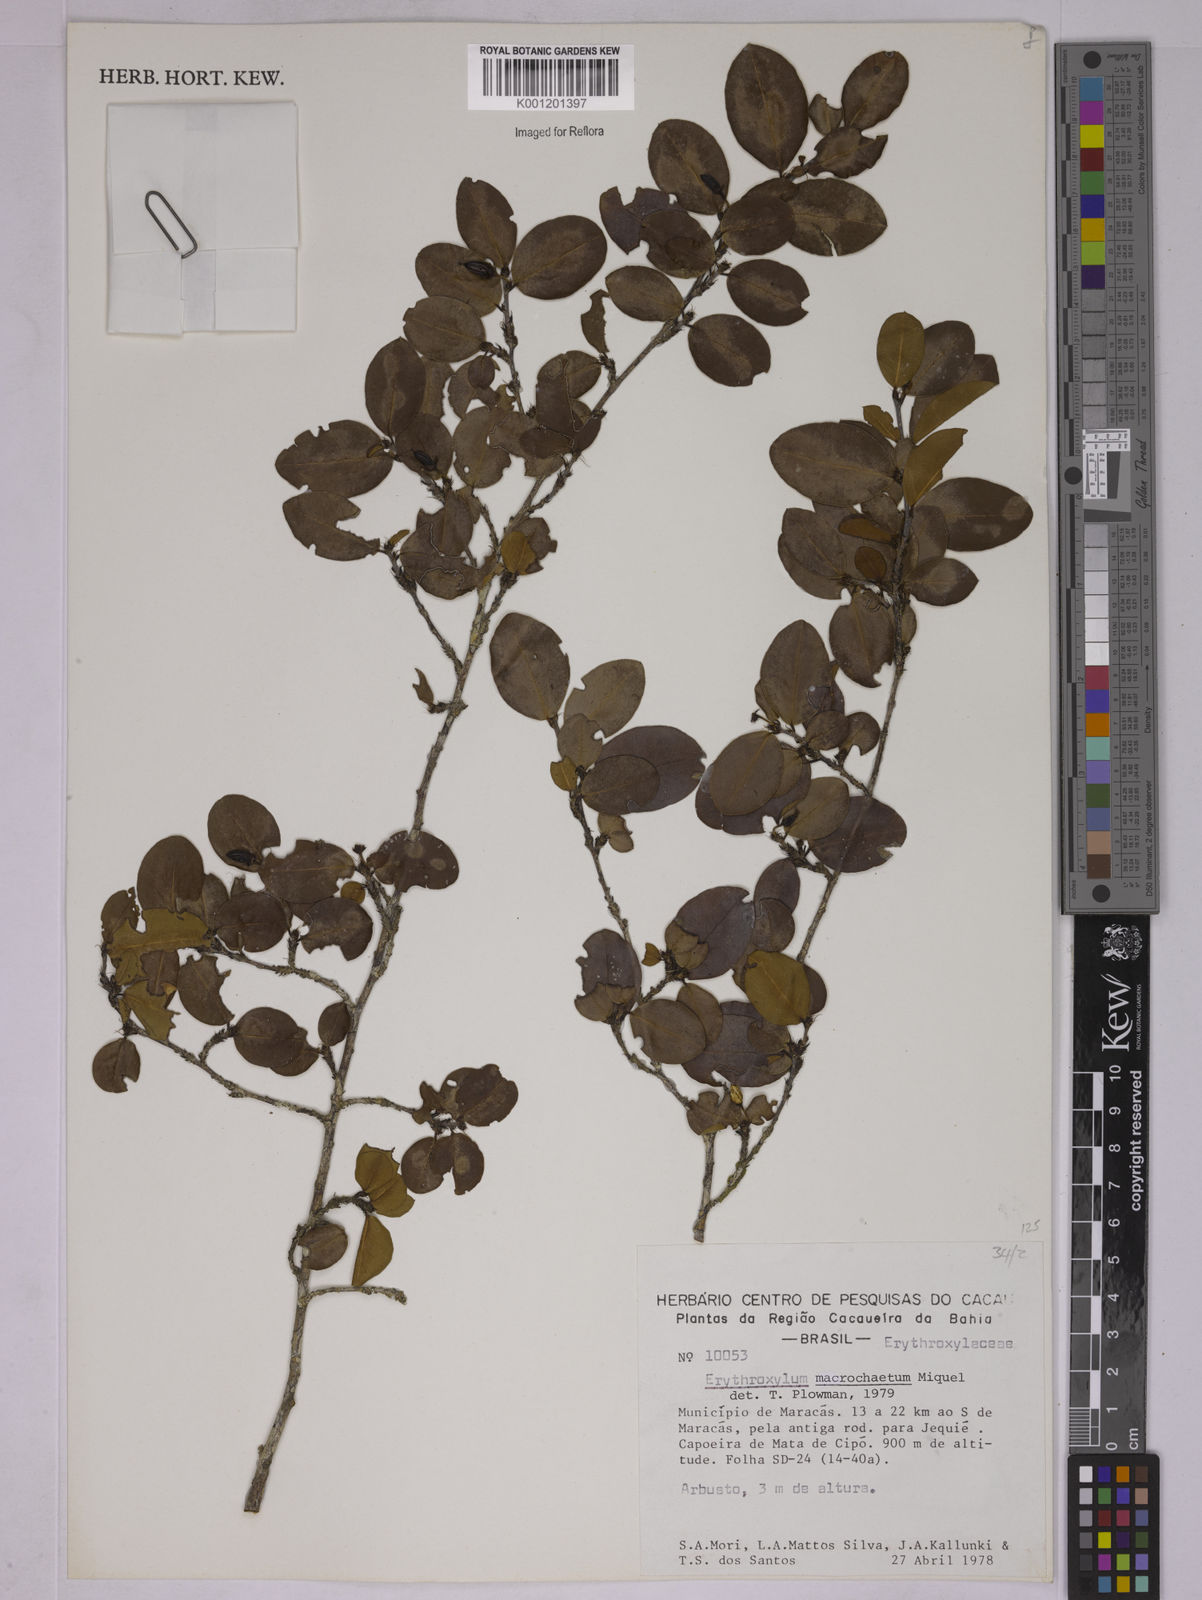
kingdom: Plantae
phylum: Tracheophyta
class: Magnoliopsida
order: Malpighiales
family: Erythroxylaceae
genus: Erythroxylum
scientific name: Erythroxylum macrochaetum
